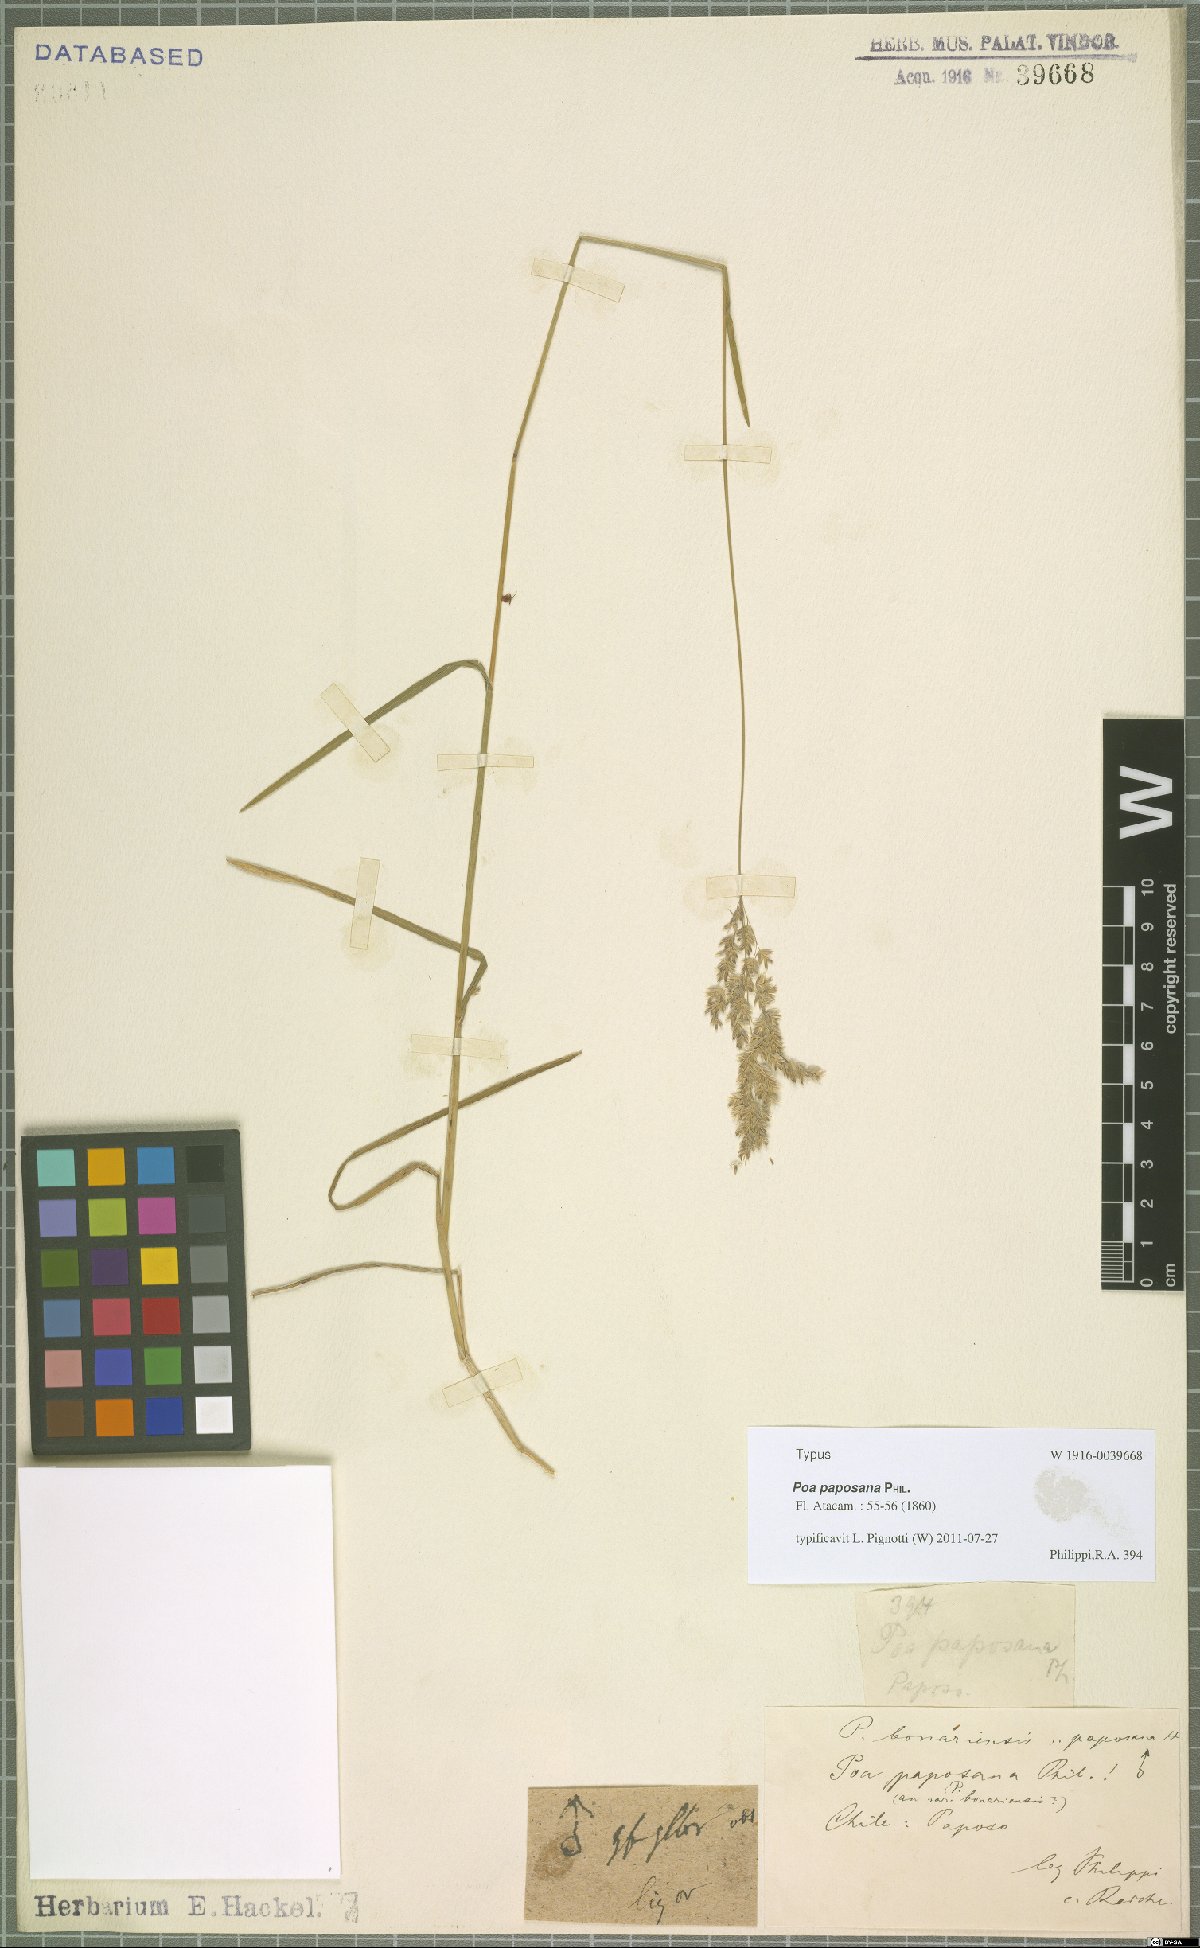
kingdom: Plantae
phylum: Tracheophyta
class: Liliopsida
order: Poales
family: Poaceae
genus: Poa
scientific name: Poa paposana
